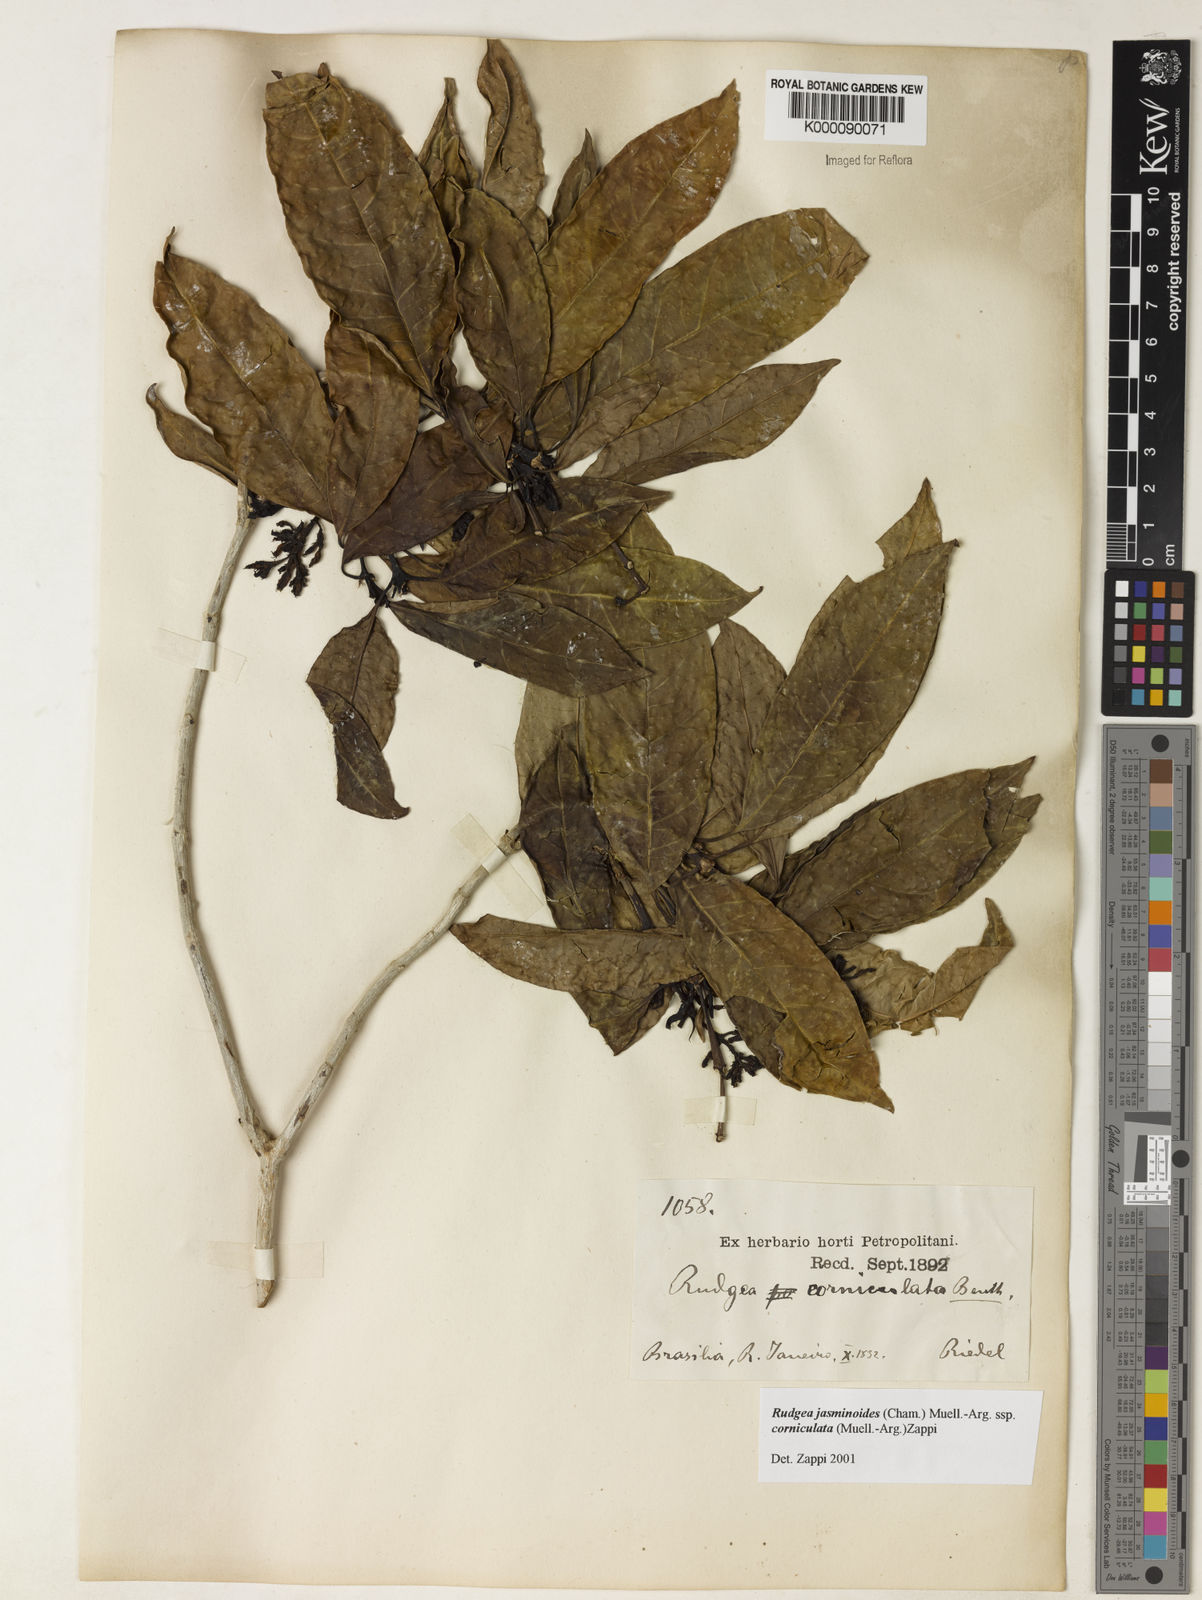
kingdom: Plantae
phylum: Tracheophyta
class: Magnoliopsida
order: Gentianales
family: Rubiaceae
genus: Rudgea
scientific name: Rudgea jasminoides
